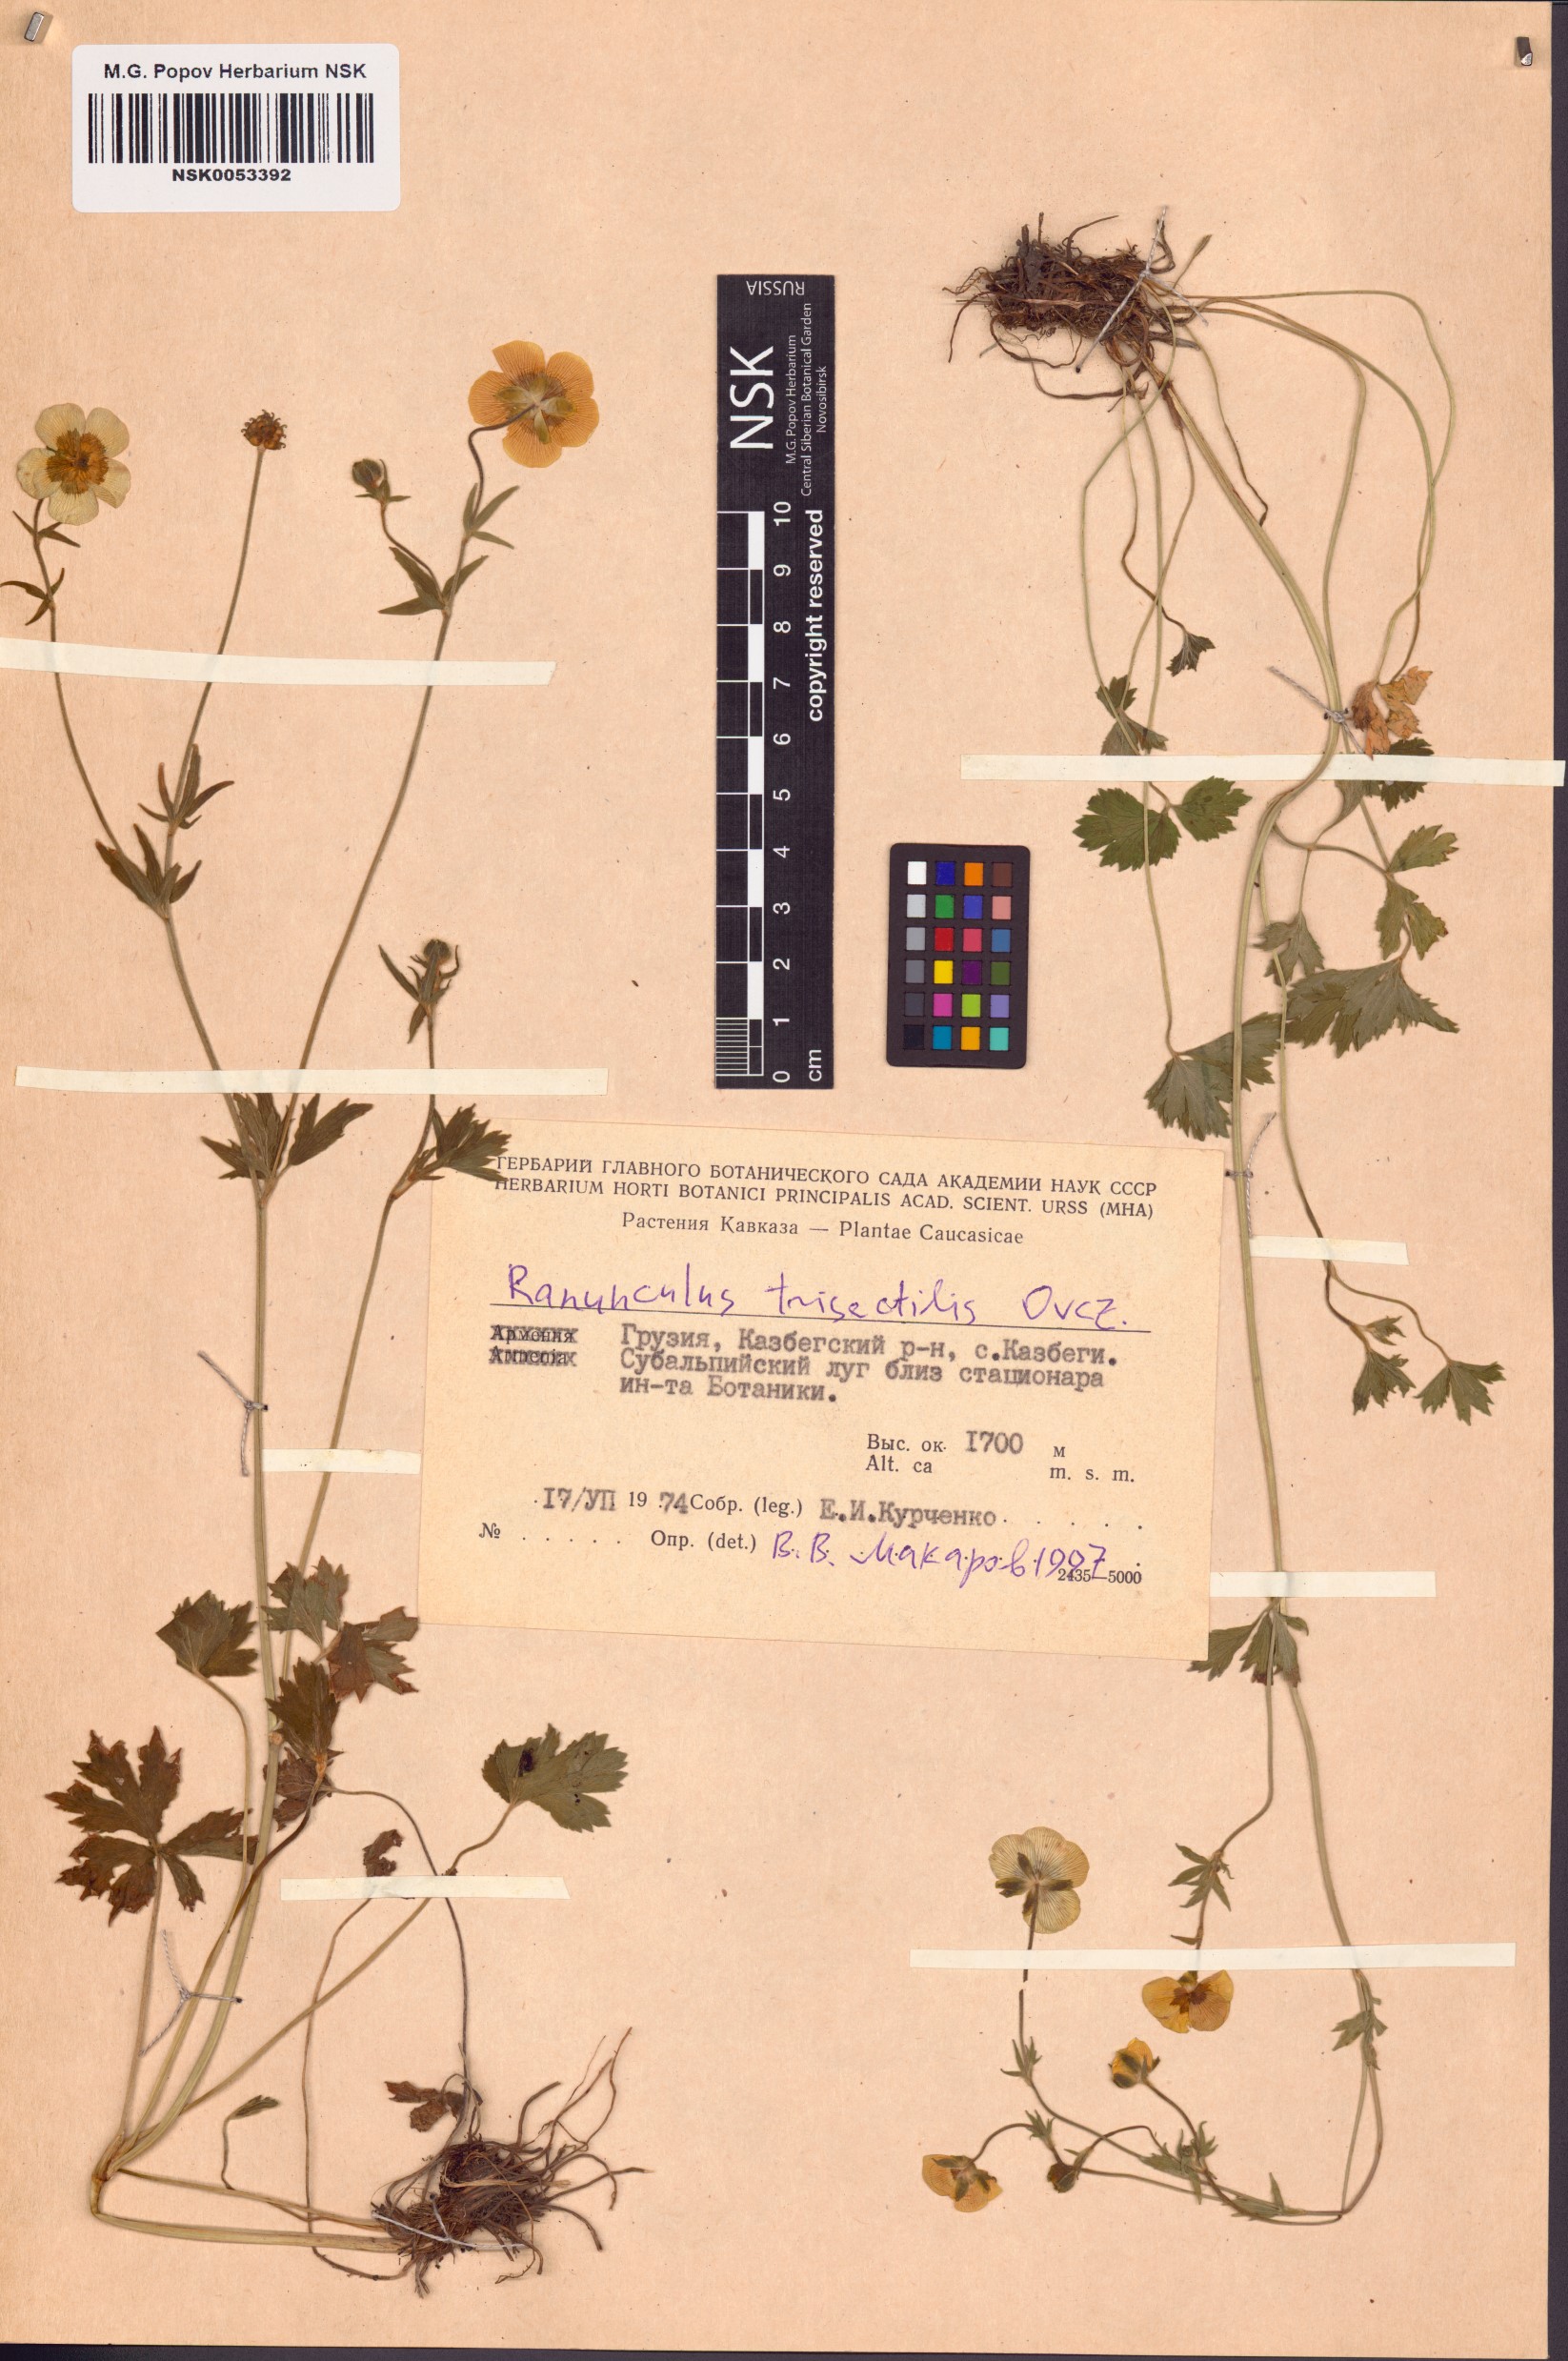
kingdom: Plantae
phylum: Tracheophyta
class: Magnoliopsida
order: Ranunculales
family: Ranunculaceae
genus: Ranunculus
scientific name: Ranunculus buhsei
